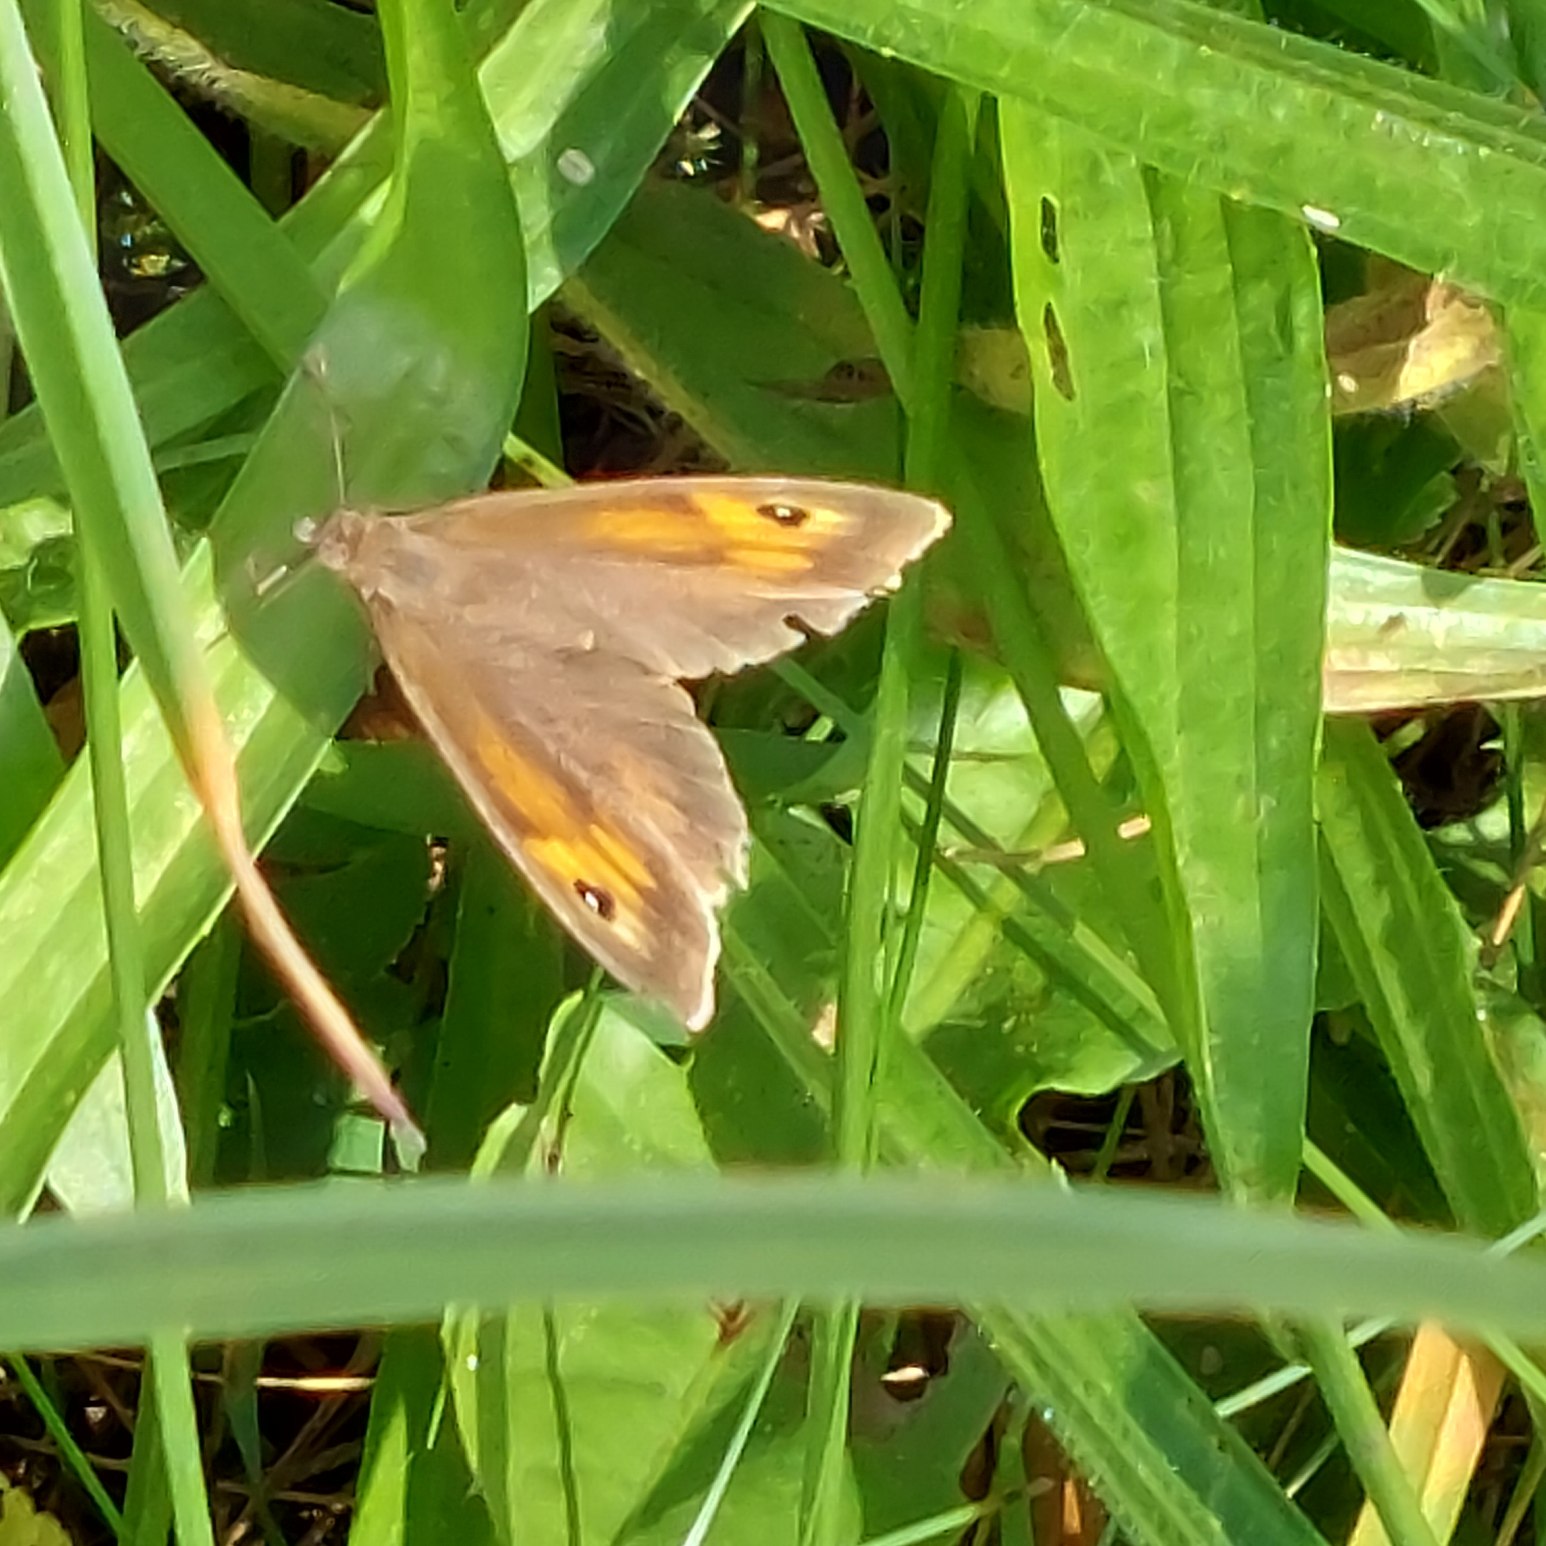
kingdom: Animalia
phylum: Arthropoda
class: Insecta
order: Lepidoptera
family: Nymphalidae
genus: Maniola
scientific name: Maniola jurtina
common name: Græsrandøje
